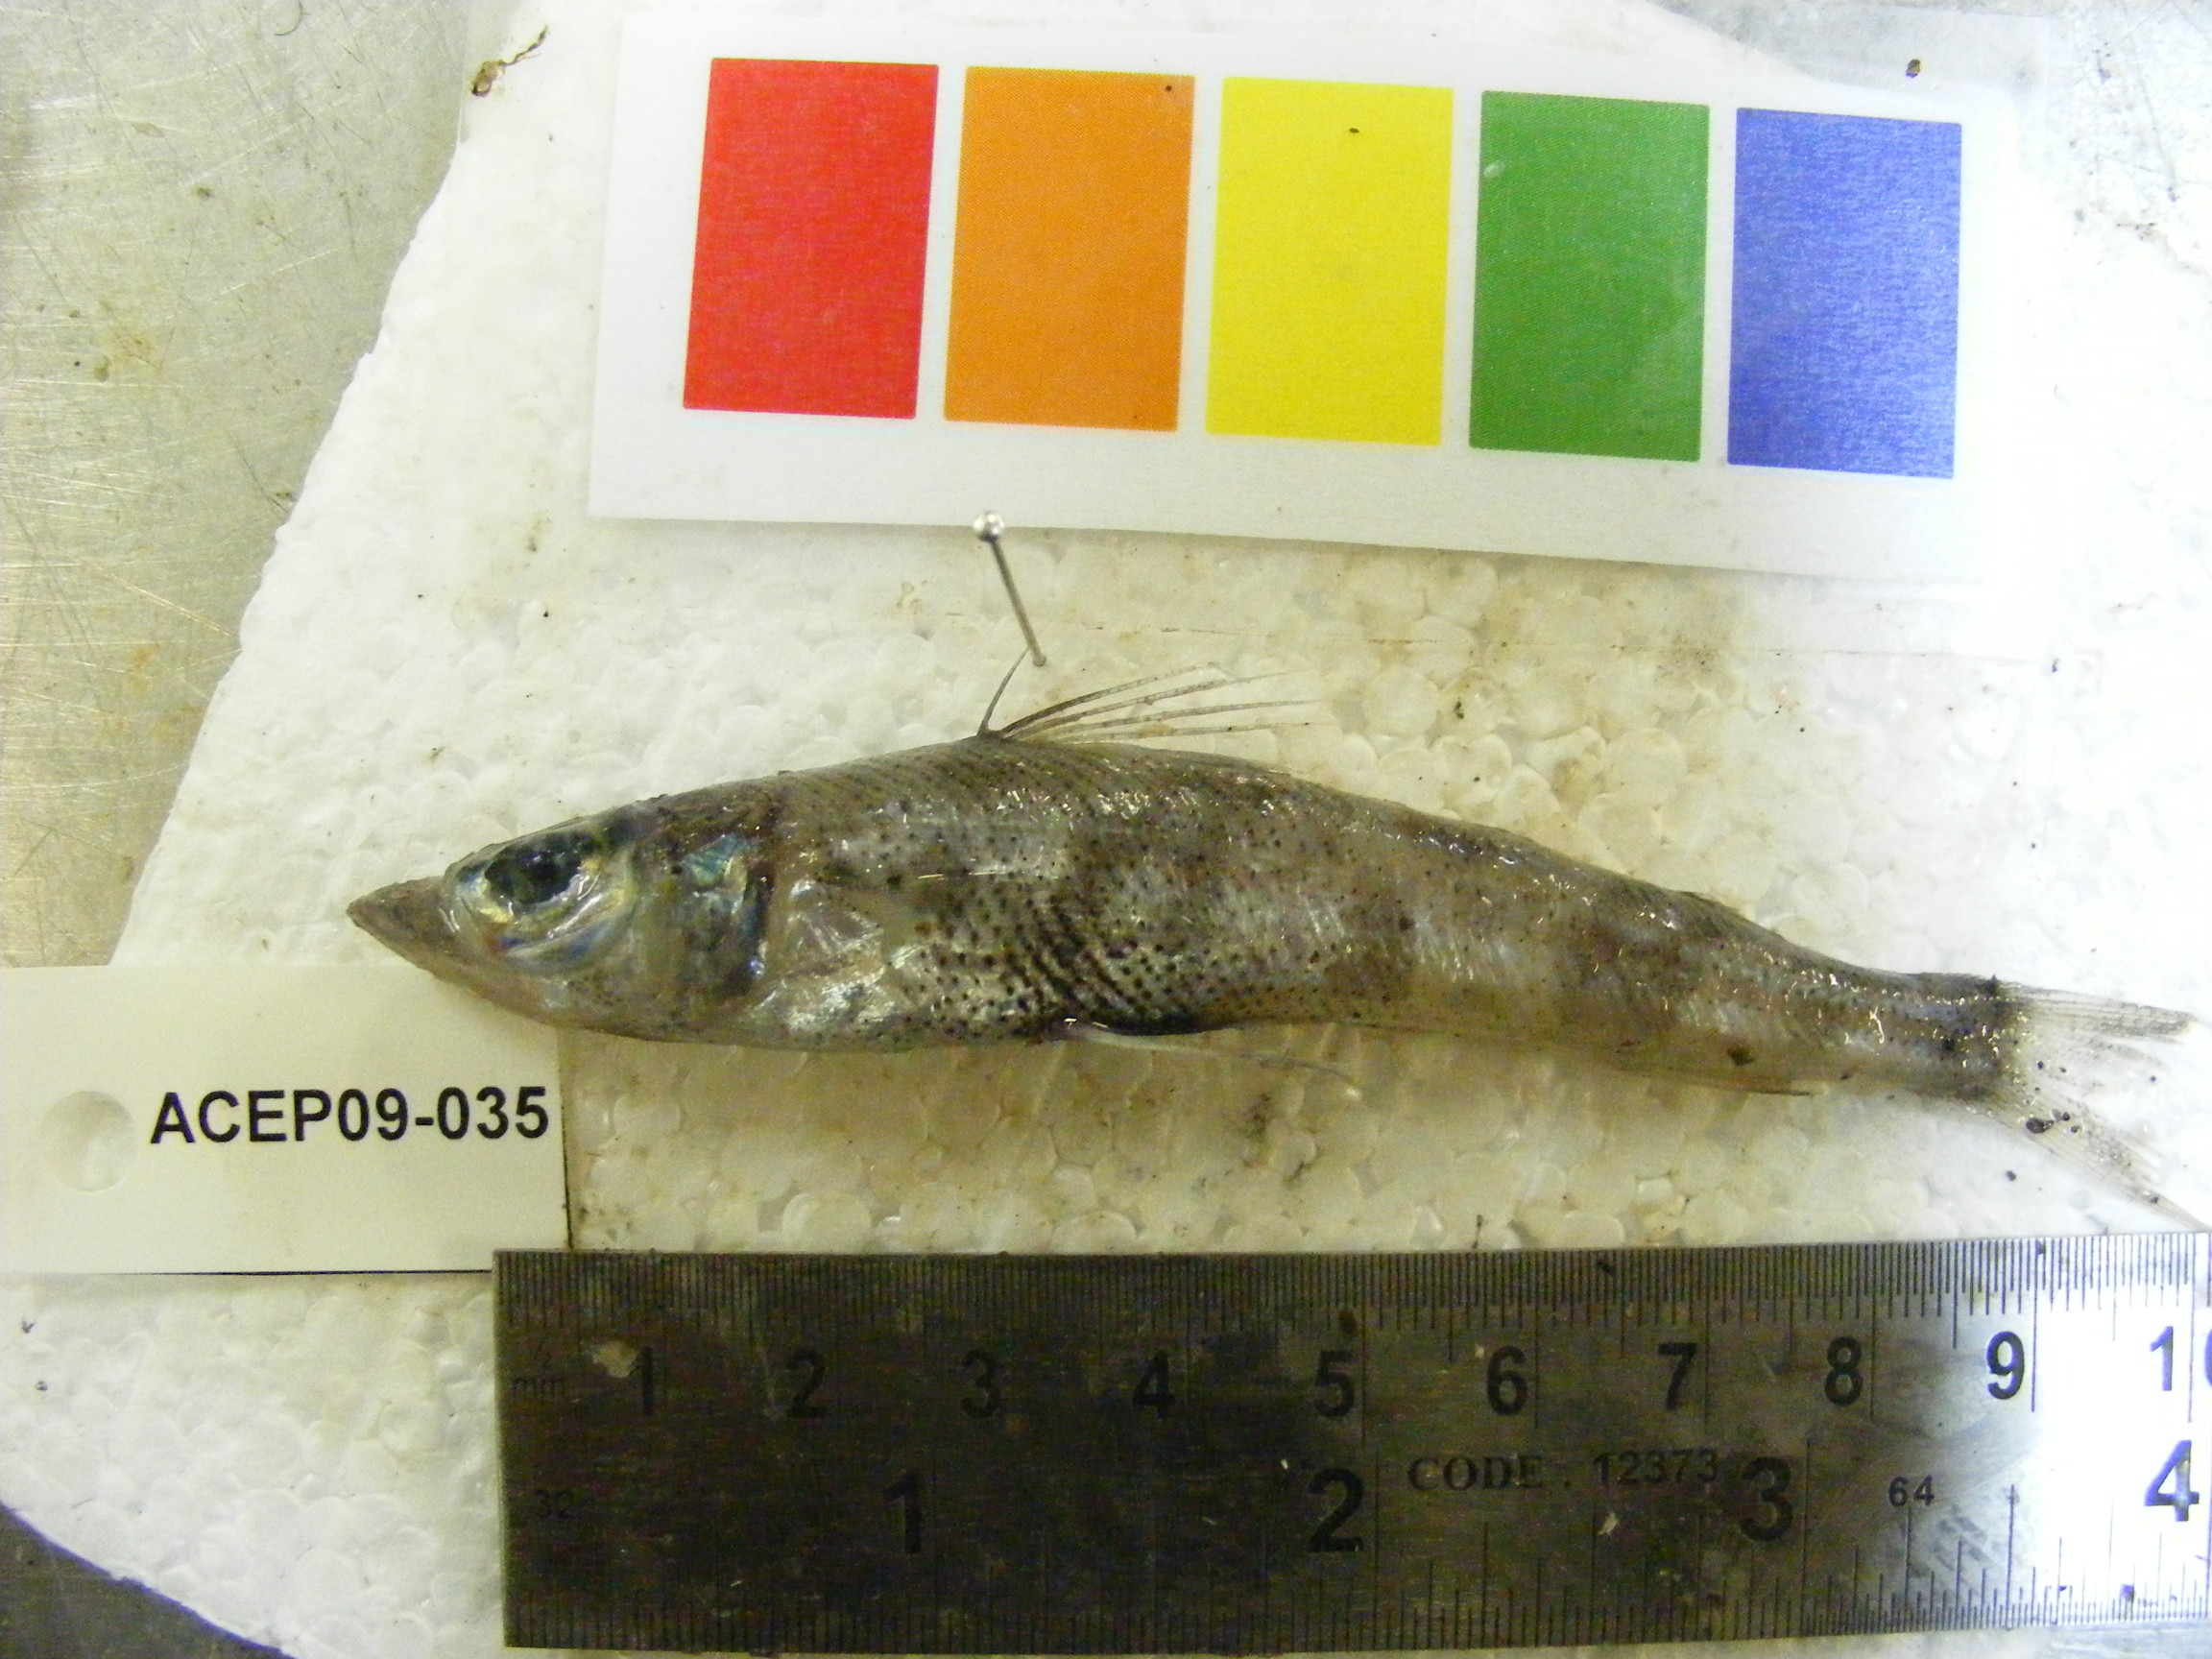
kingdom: Animalia
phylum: Chordata
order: Perciformes
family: Percophidae
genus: Bembrops
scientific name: Bembrops
